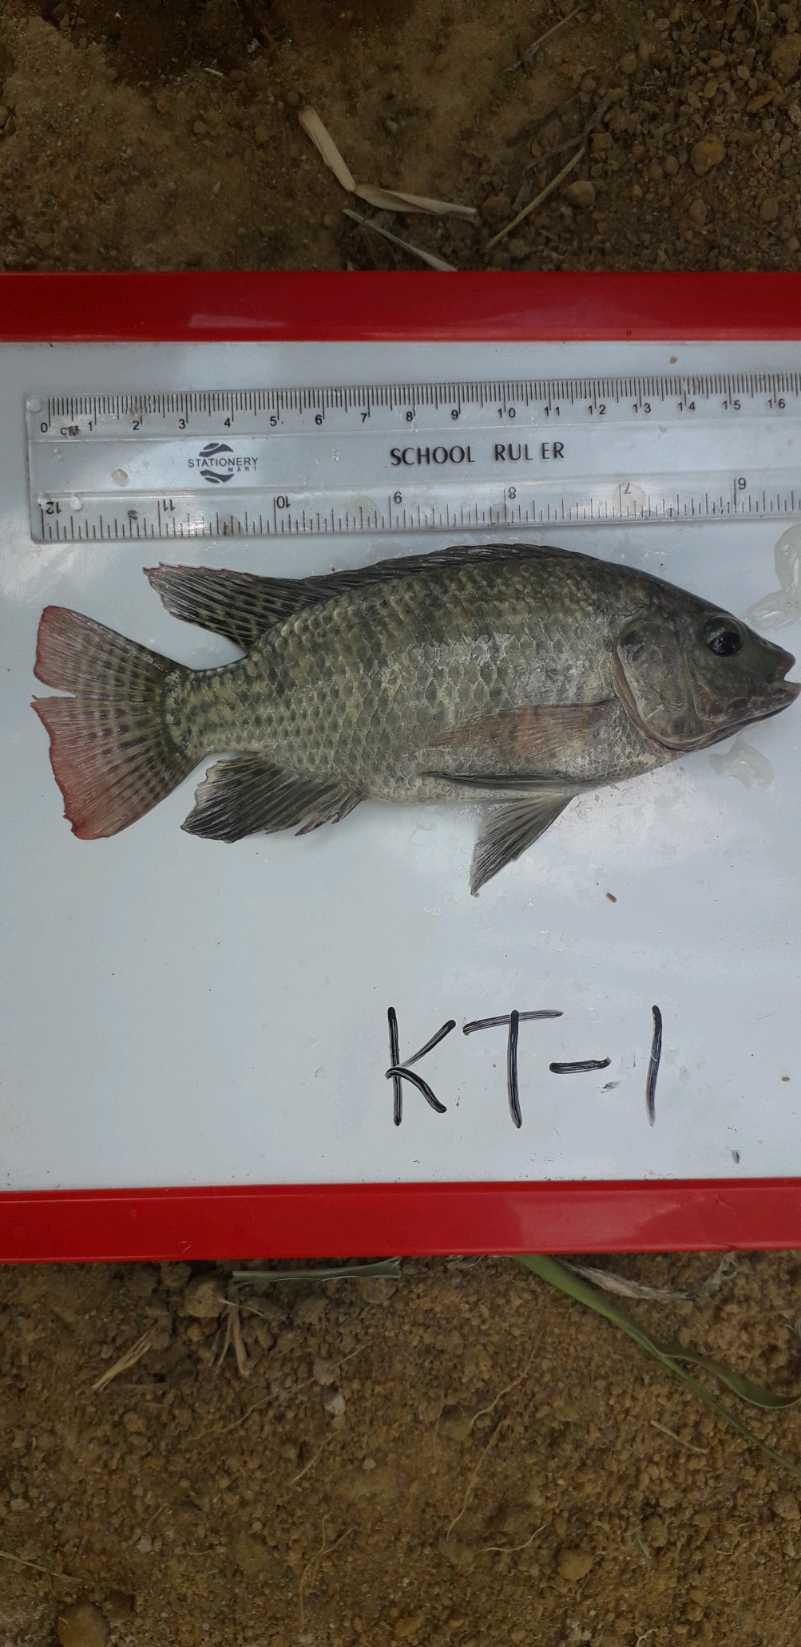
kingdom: Animalia
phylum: Chordata
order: Perciformes
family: Cichlidae
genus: Oreochromis
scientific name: Oreochromis niloticus
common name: Nile tilapia
